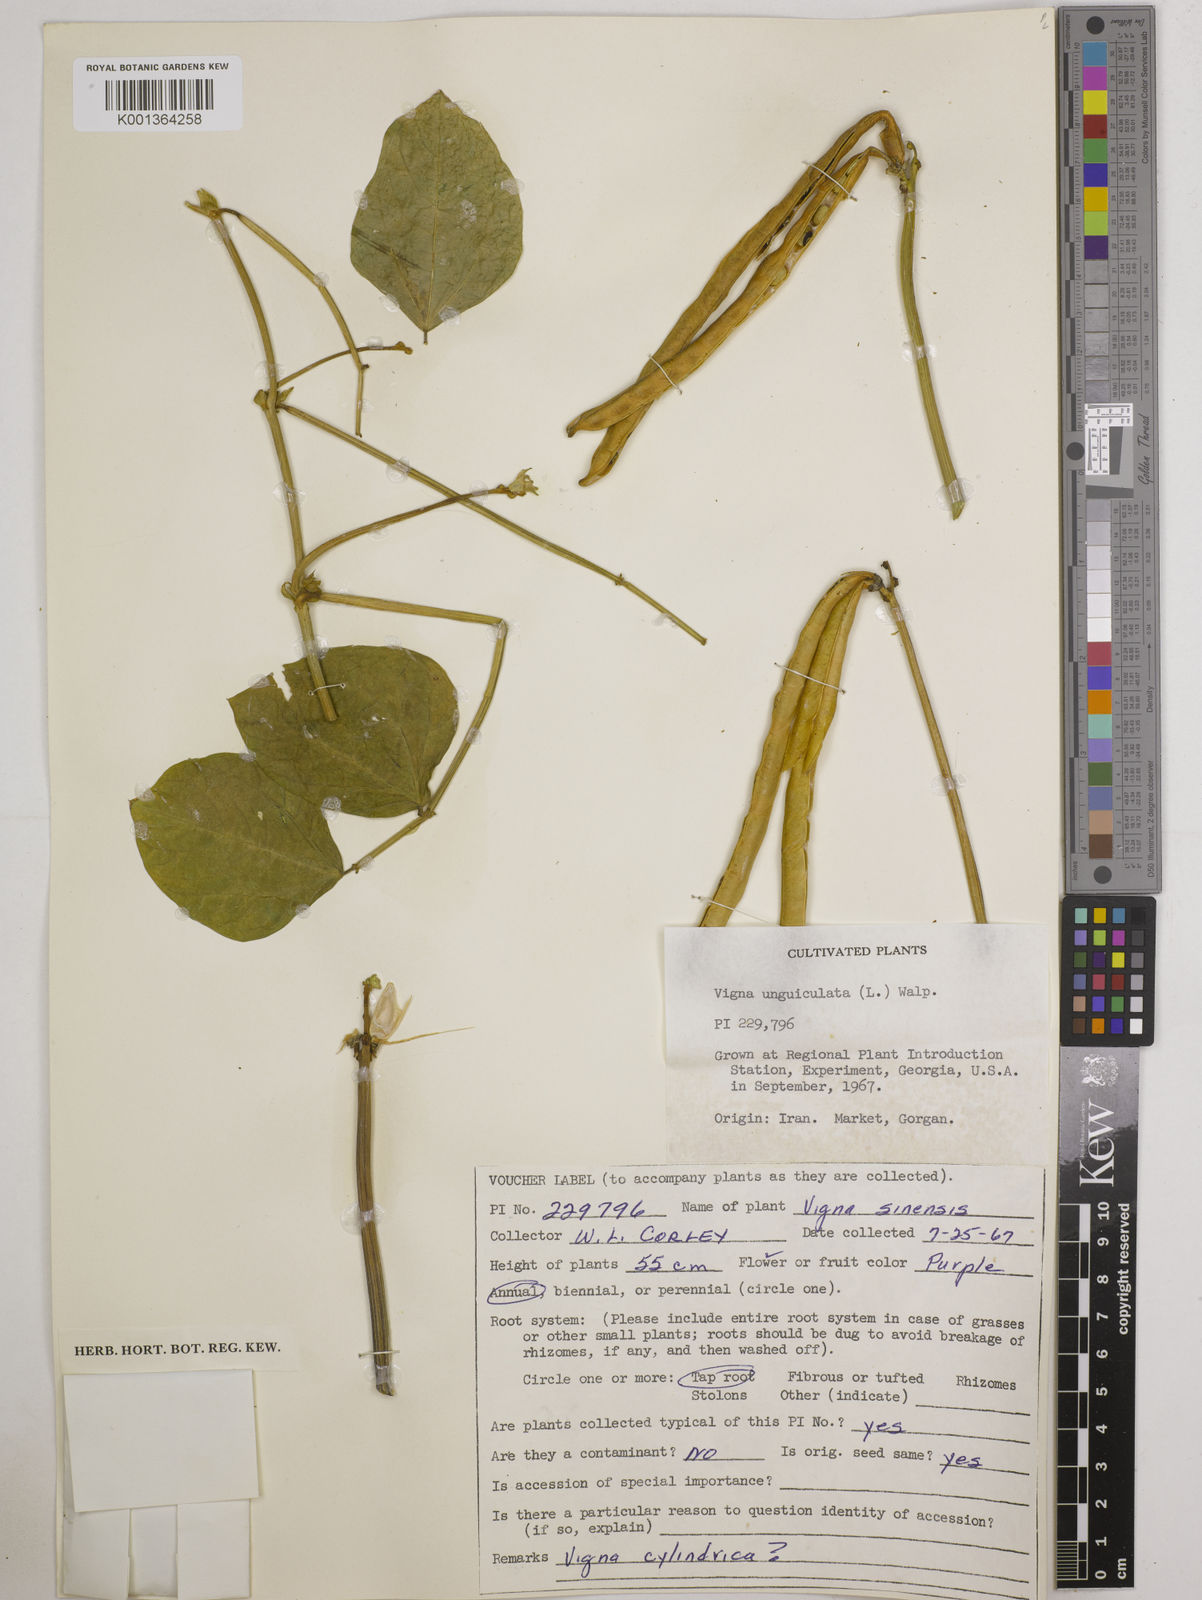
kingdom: Plantae
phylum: Tracheophyta
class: Magnoliopsida
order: Fabales
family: Fabaceae
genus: Vigna
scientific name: Vigna
